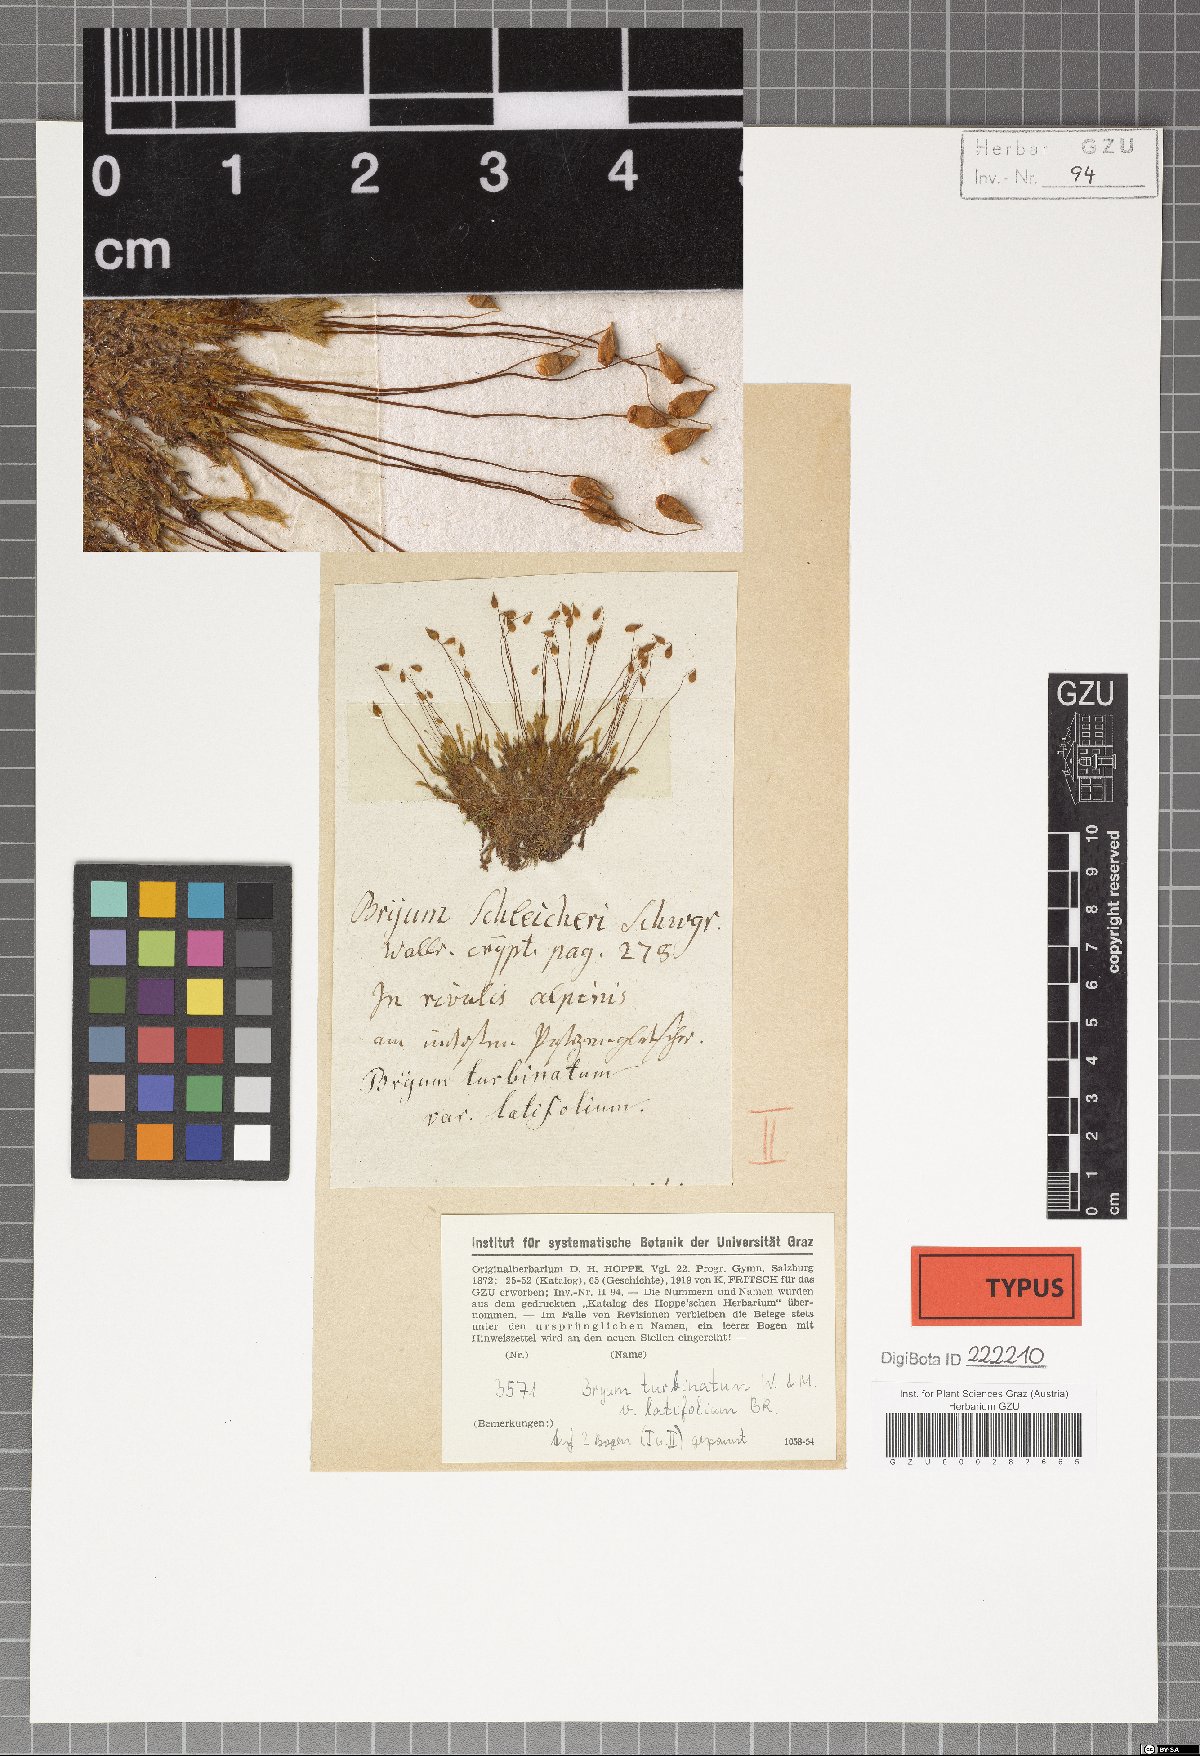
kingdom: Plantae
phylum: Bryophyta
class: Bryopsida
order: Bryales
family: Bryaceae
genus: Ptychostomum
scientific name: Ptychostomum schleicheri
